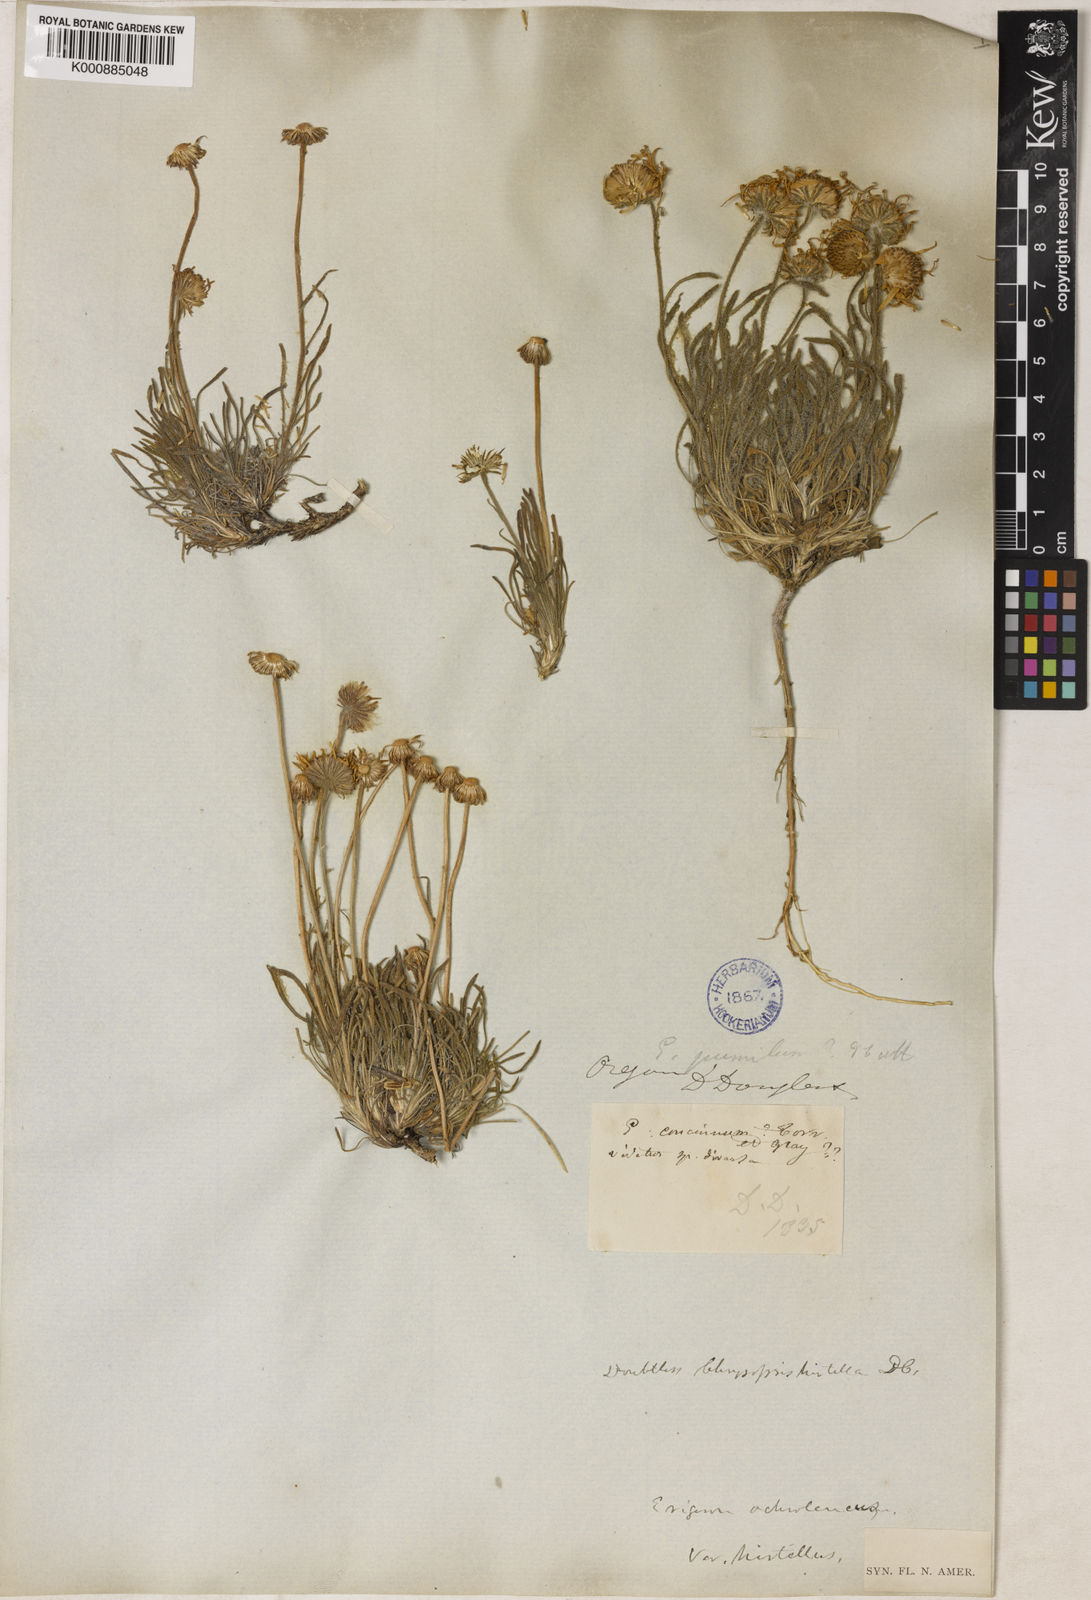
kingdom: Plantae
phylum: Tracheophyta
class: Magnoliopsida
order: Asterales
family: Asteraceae
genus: Erigeron
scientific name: Erigeron
